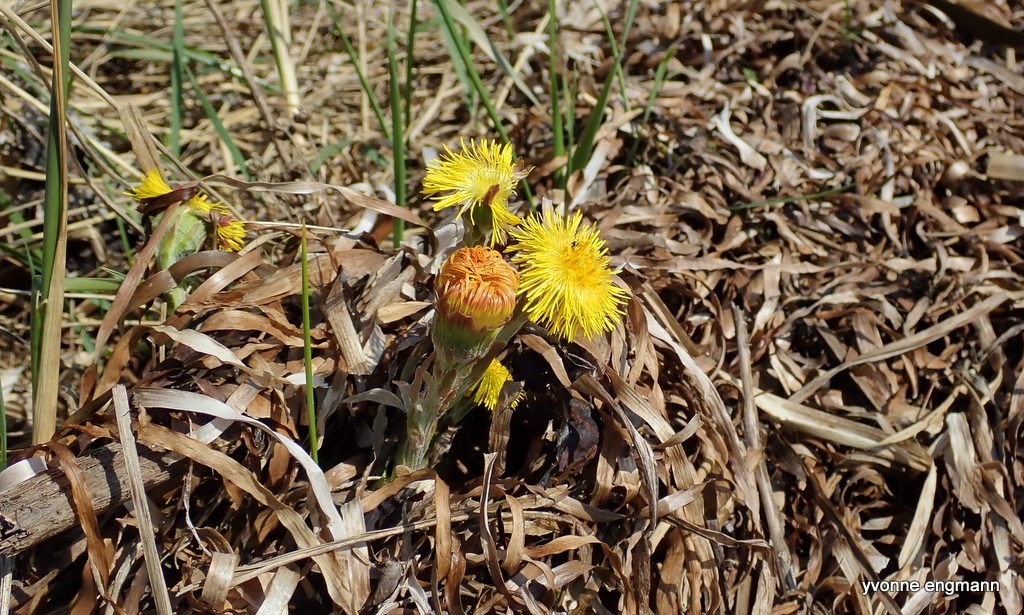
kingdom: Plantae
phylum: Tracheophyta
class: Magnoliopsida
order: Asterales
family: Asteraceae
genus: Tussilago
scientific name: Tussilago farfara
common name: Følfod
